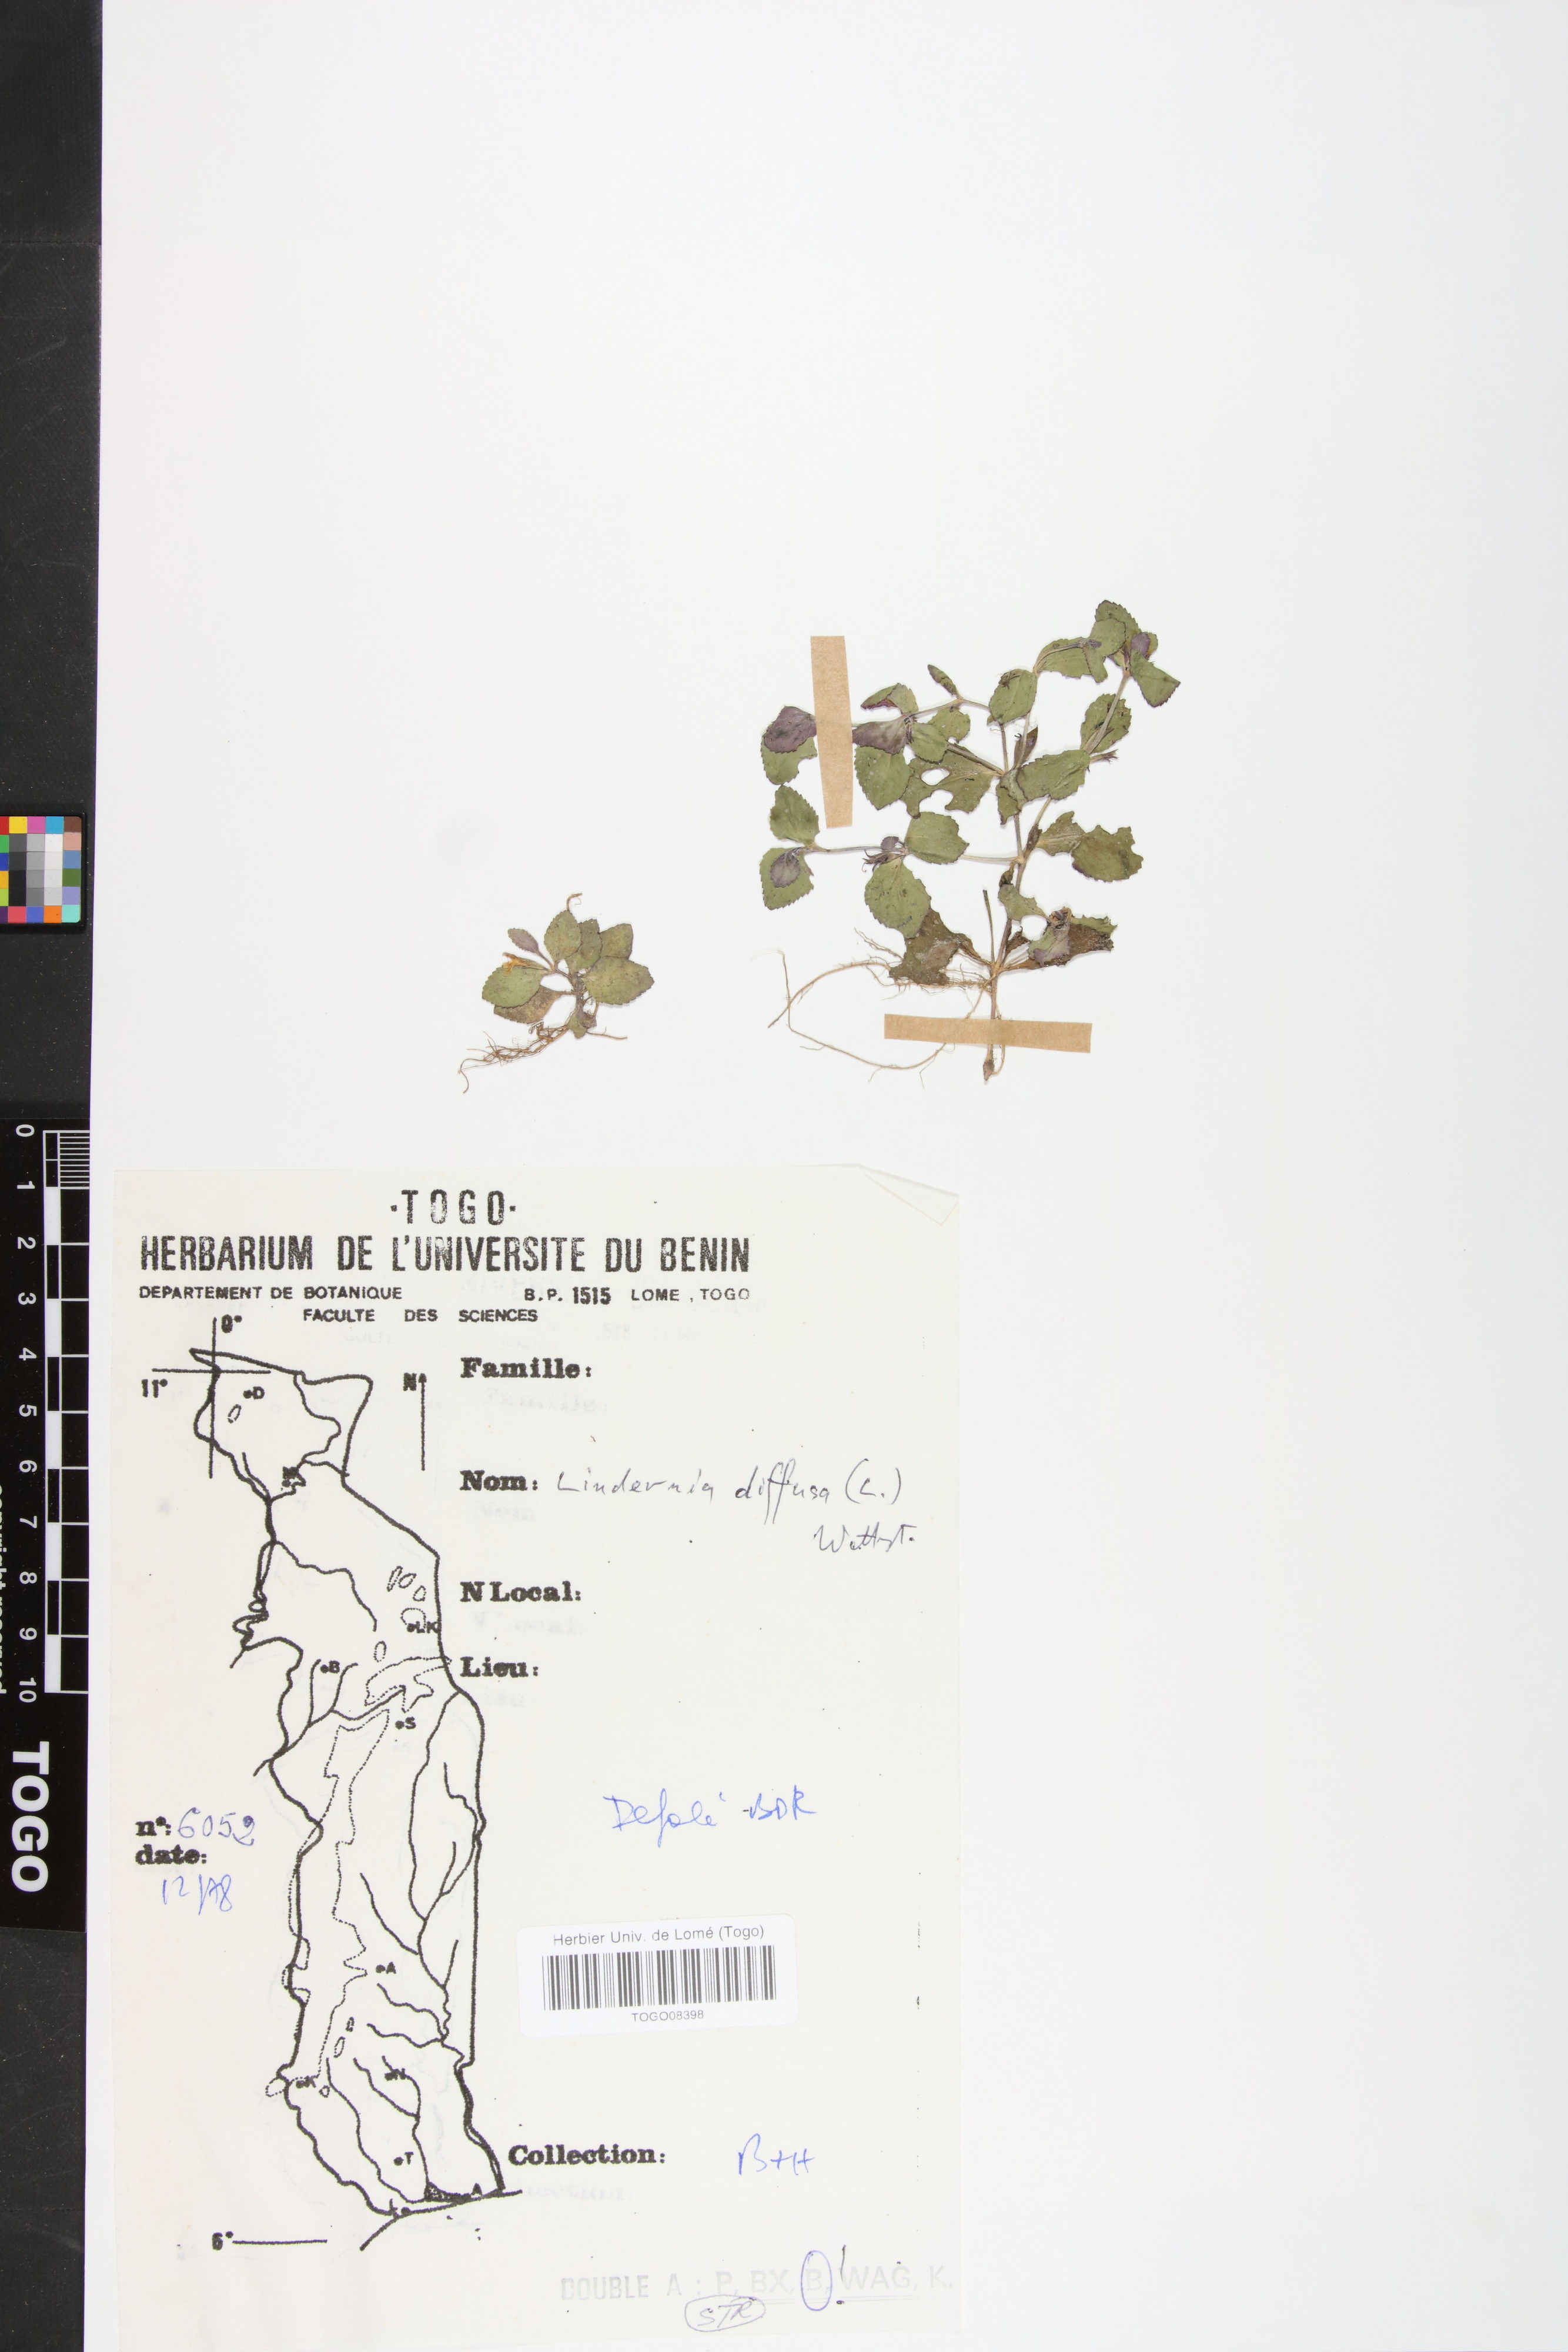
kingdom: Plantae
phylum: Tracheophyta
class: Magnoliopsida
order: Lamiales
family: Linderniaceae
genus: Vandellia
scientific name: Vandellia diffusa
